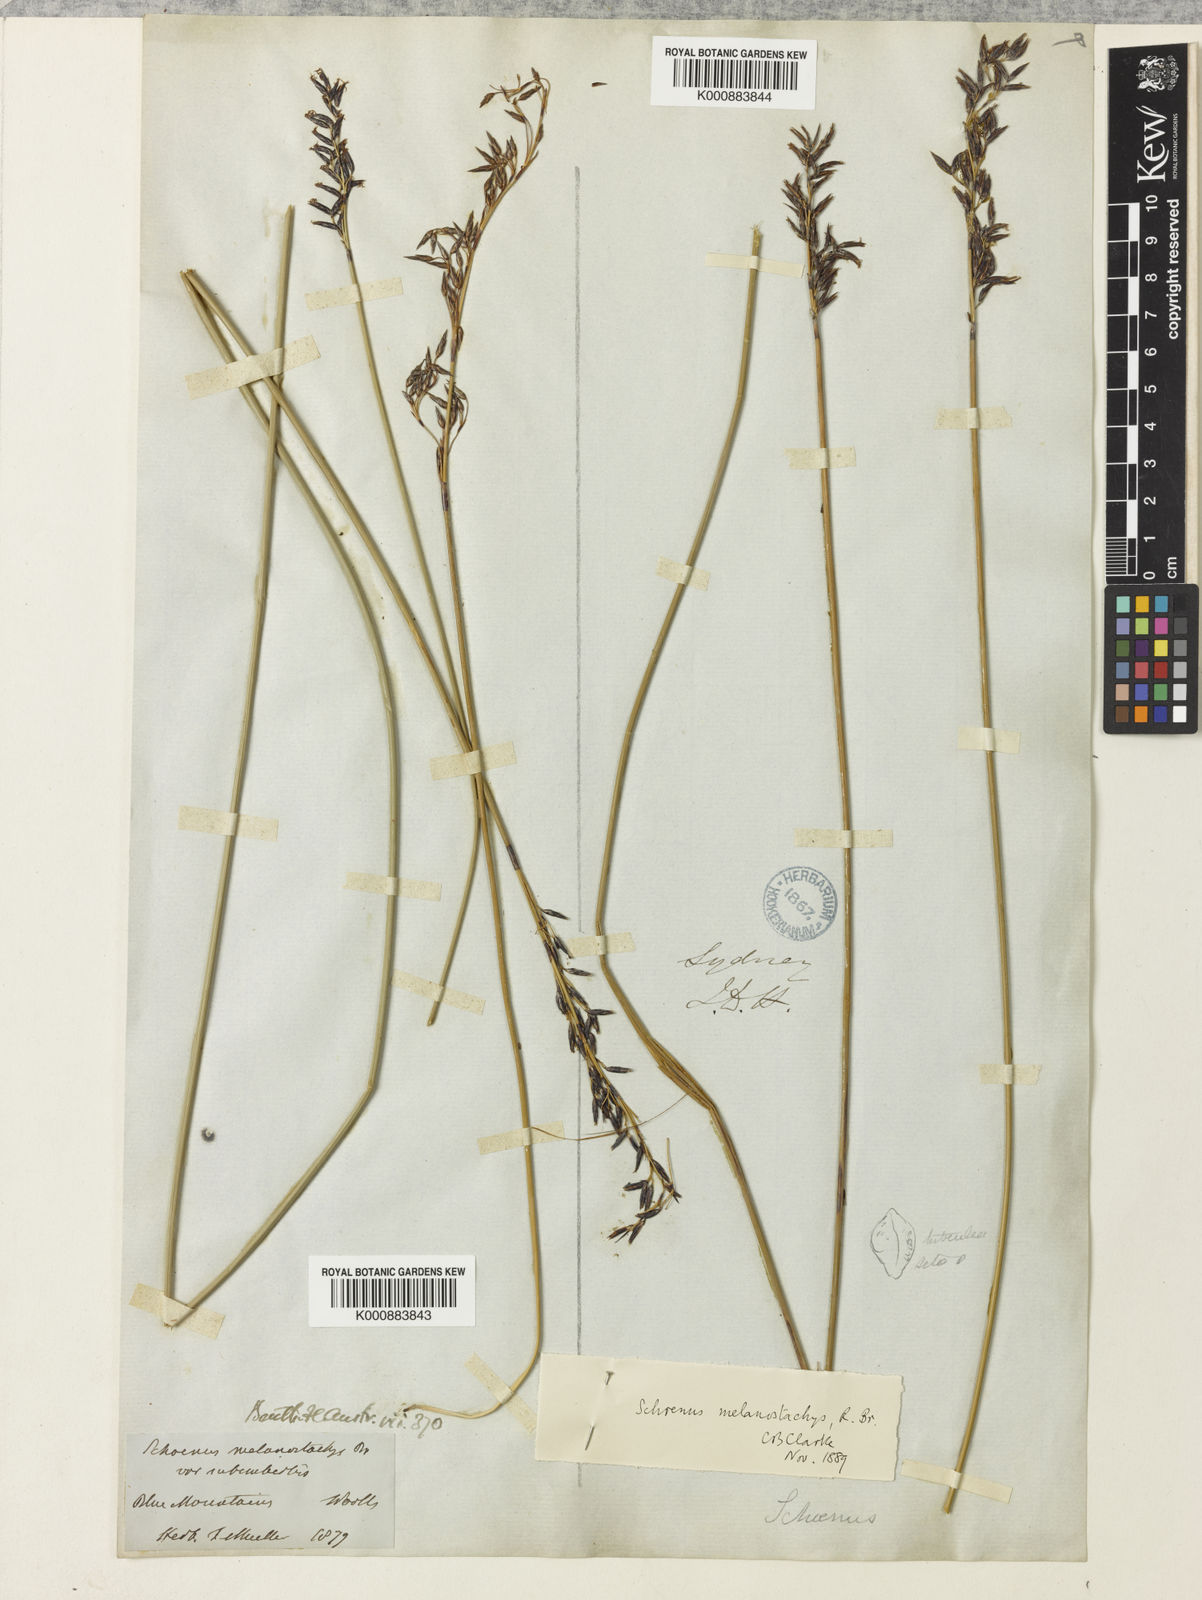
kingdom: Plantae
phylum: Tracheophyta
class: Liliopsida
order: Poales
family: Cyperaceae
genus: Schoenus
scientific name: Schoenus melanostachys
